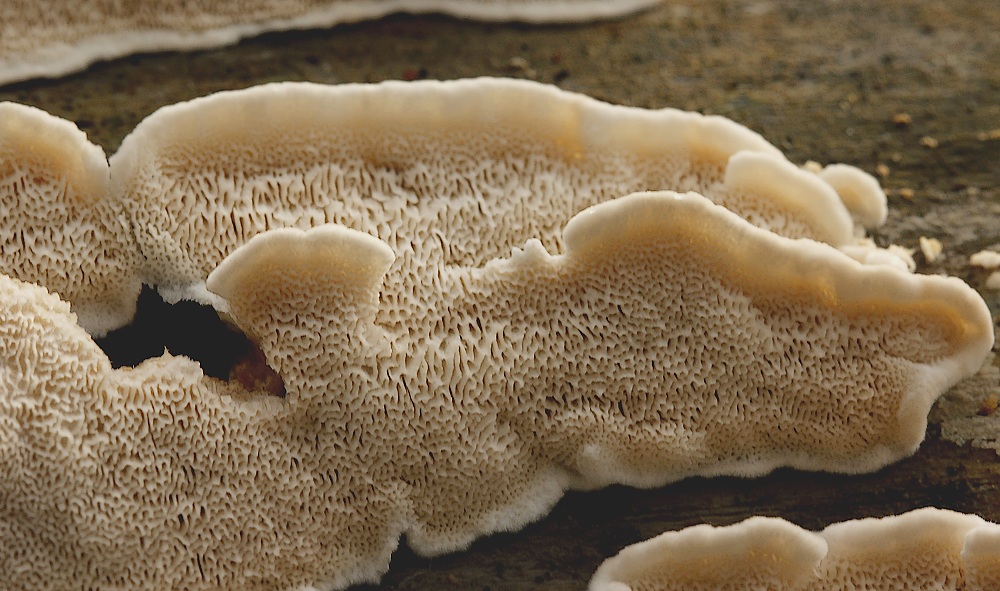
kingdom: Fungi
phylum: Basidiomycota
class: Agaricomycetes
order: Polyporales
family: Incrustoporiaceae
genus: Skeletocutis
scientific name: Skeletocutis amorpha
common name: orange krystalporesvamp
